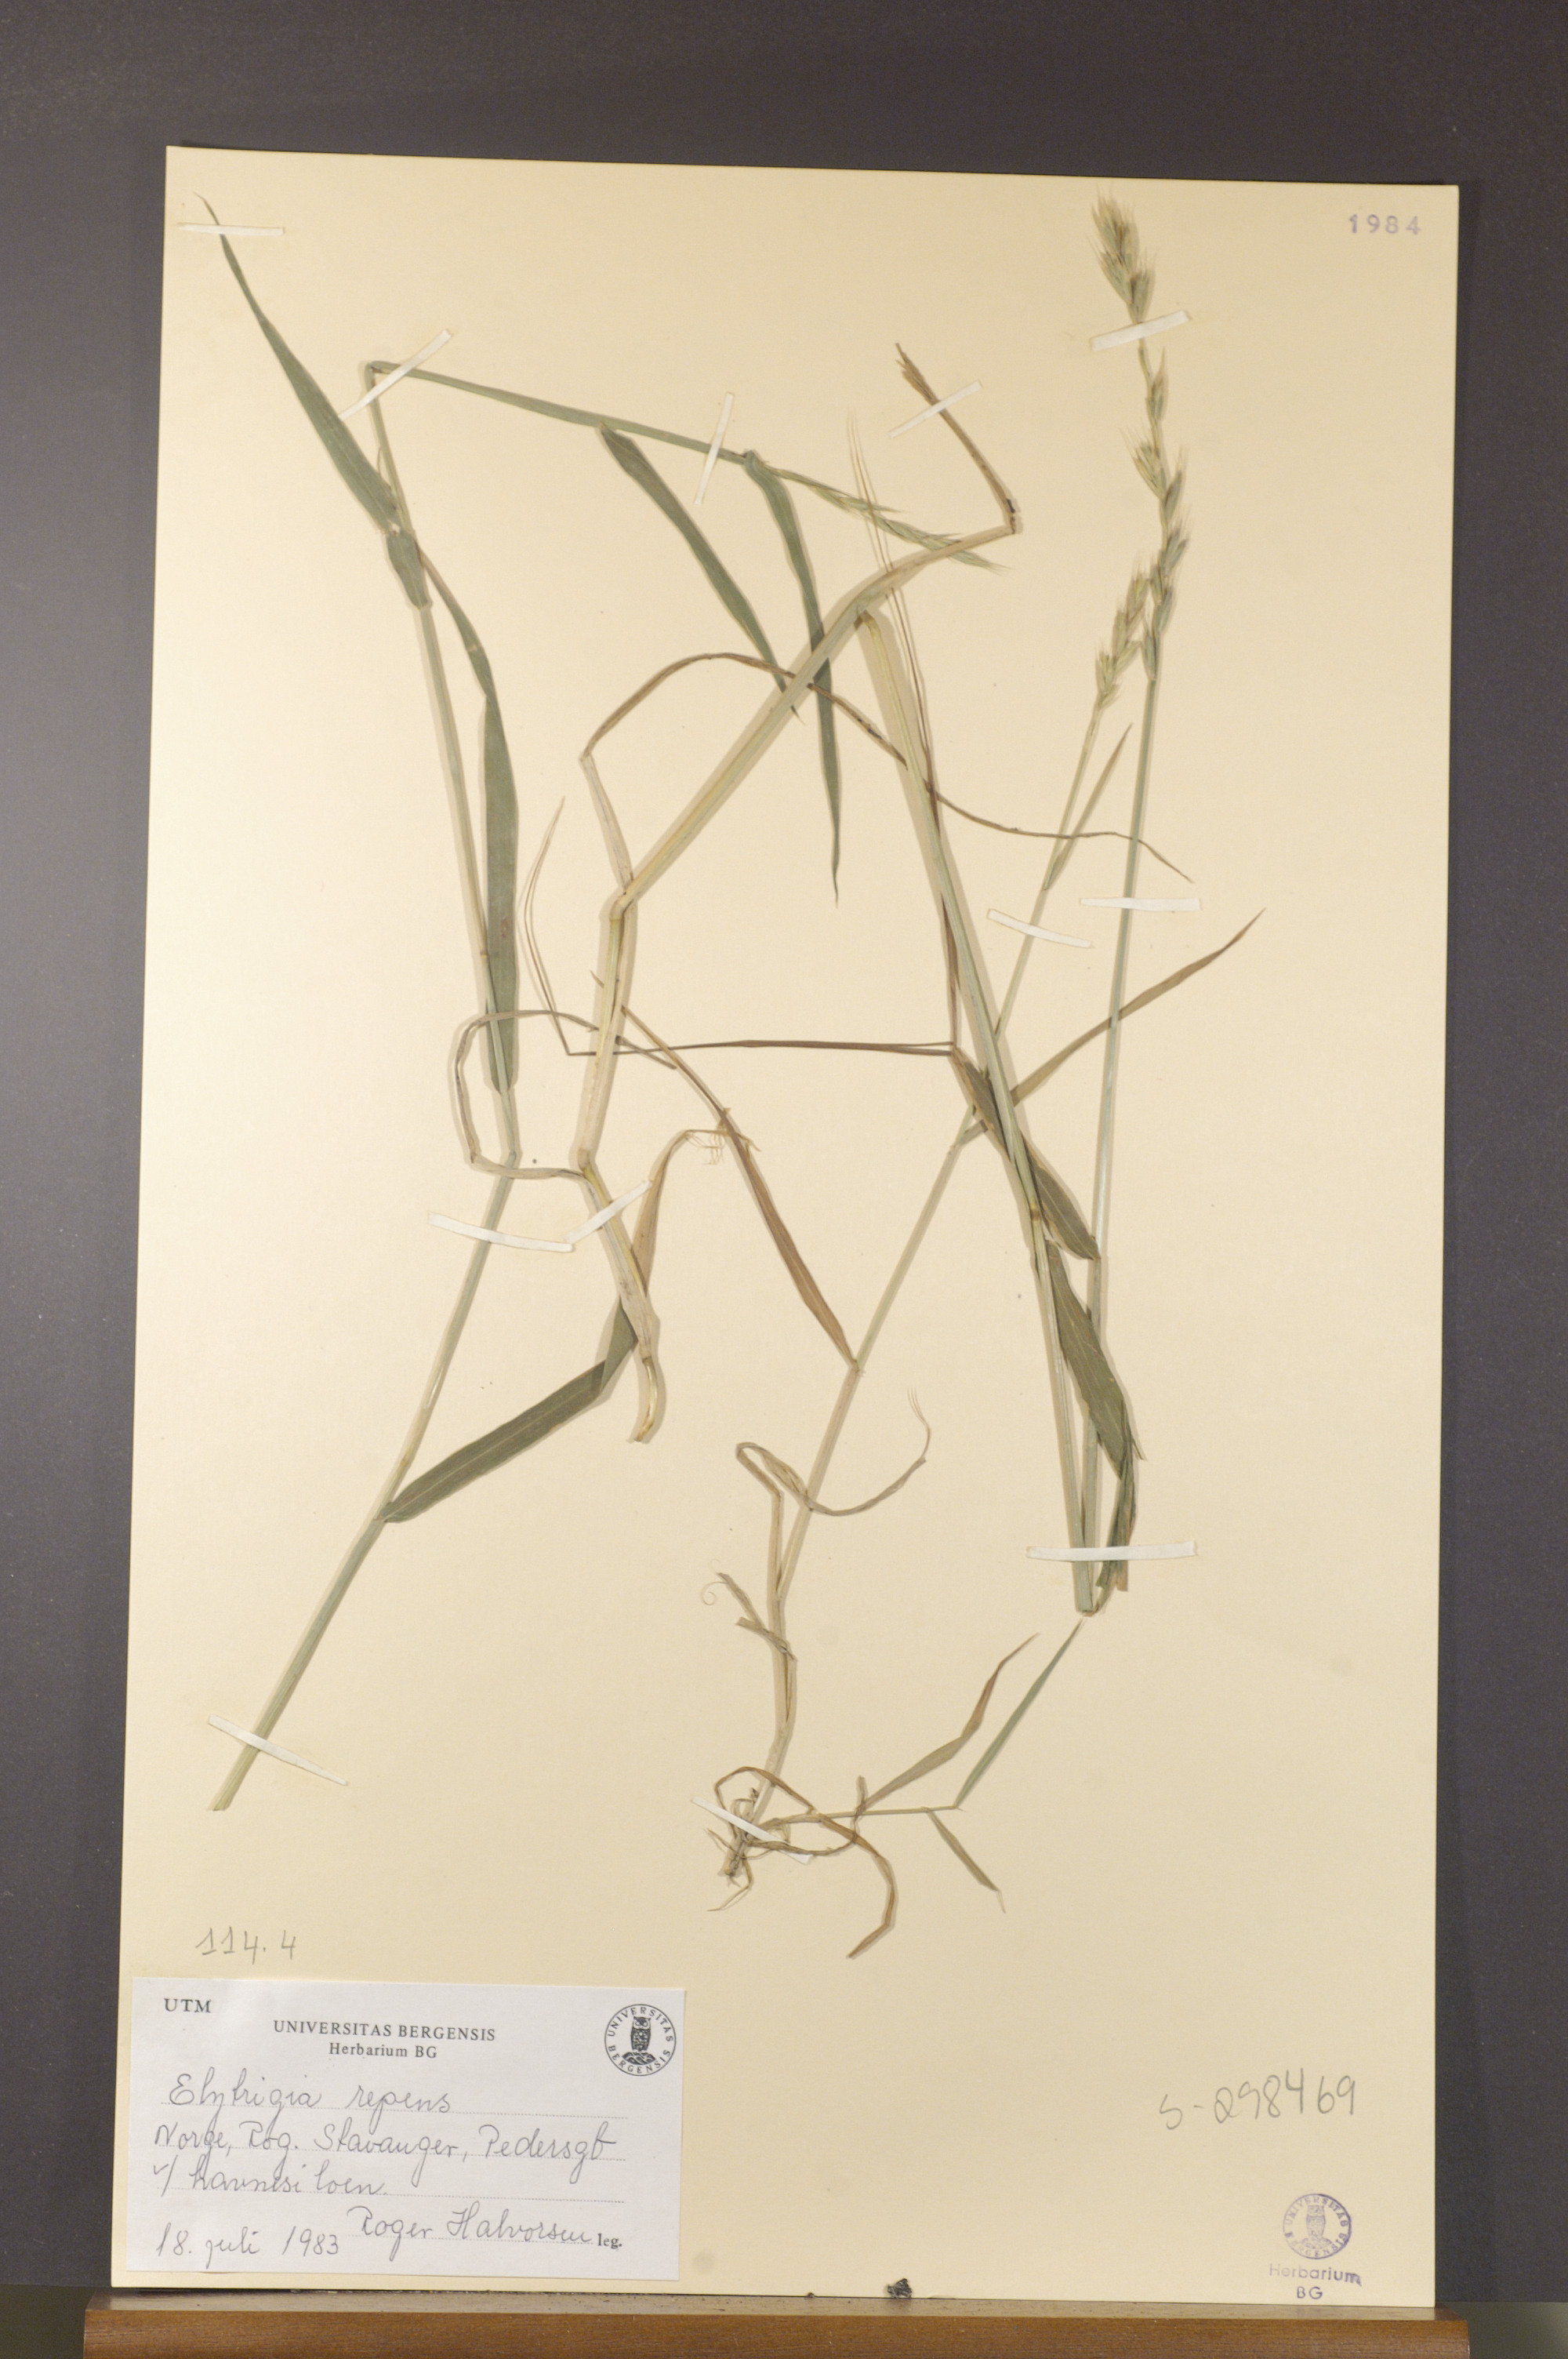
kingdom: Plantae
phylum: Tracheophyta
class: Liliopsida
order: Poales
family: Poaceae
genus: Elymus
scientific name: Elymus repens
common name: Quackgrass
